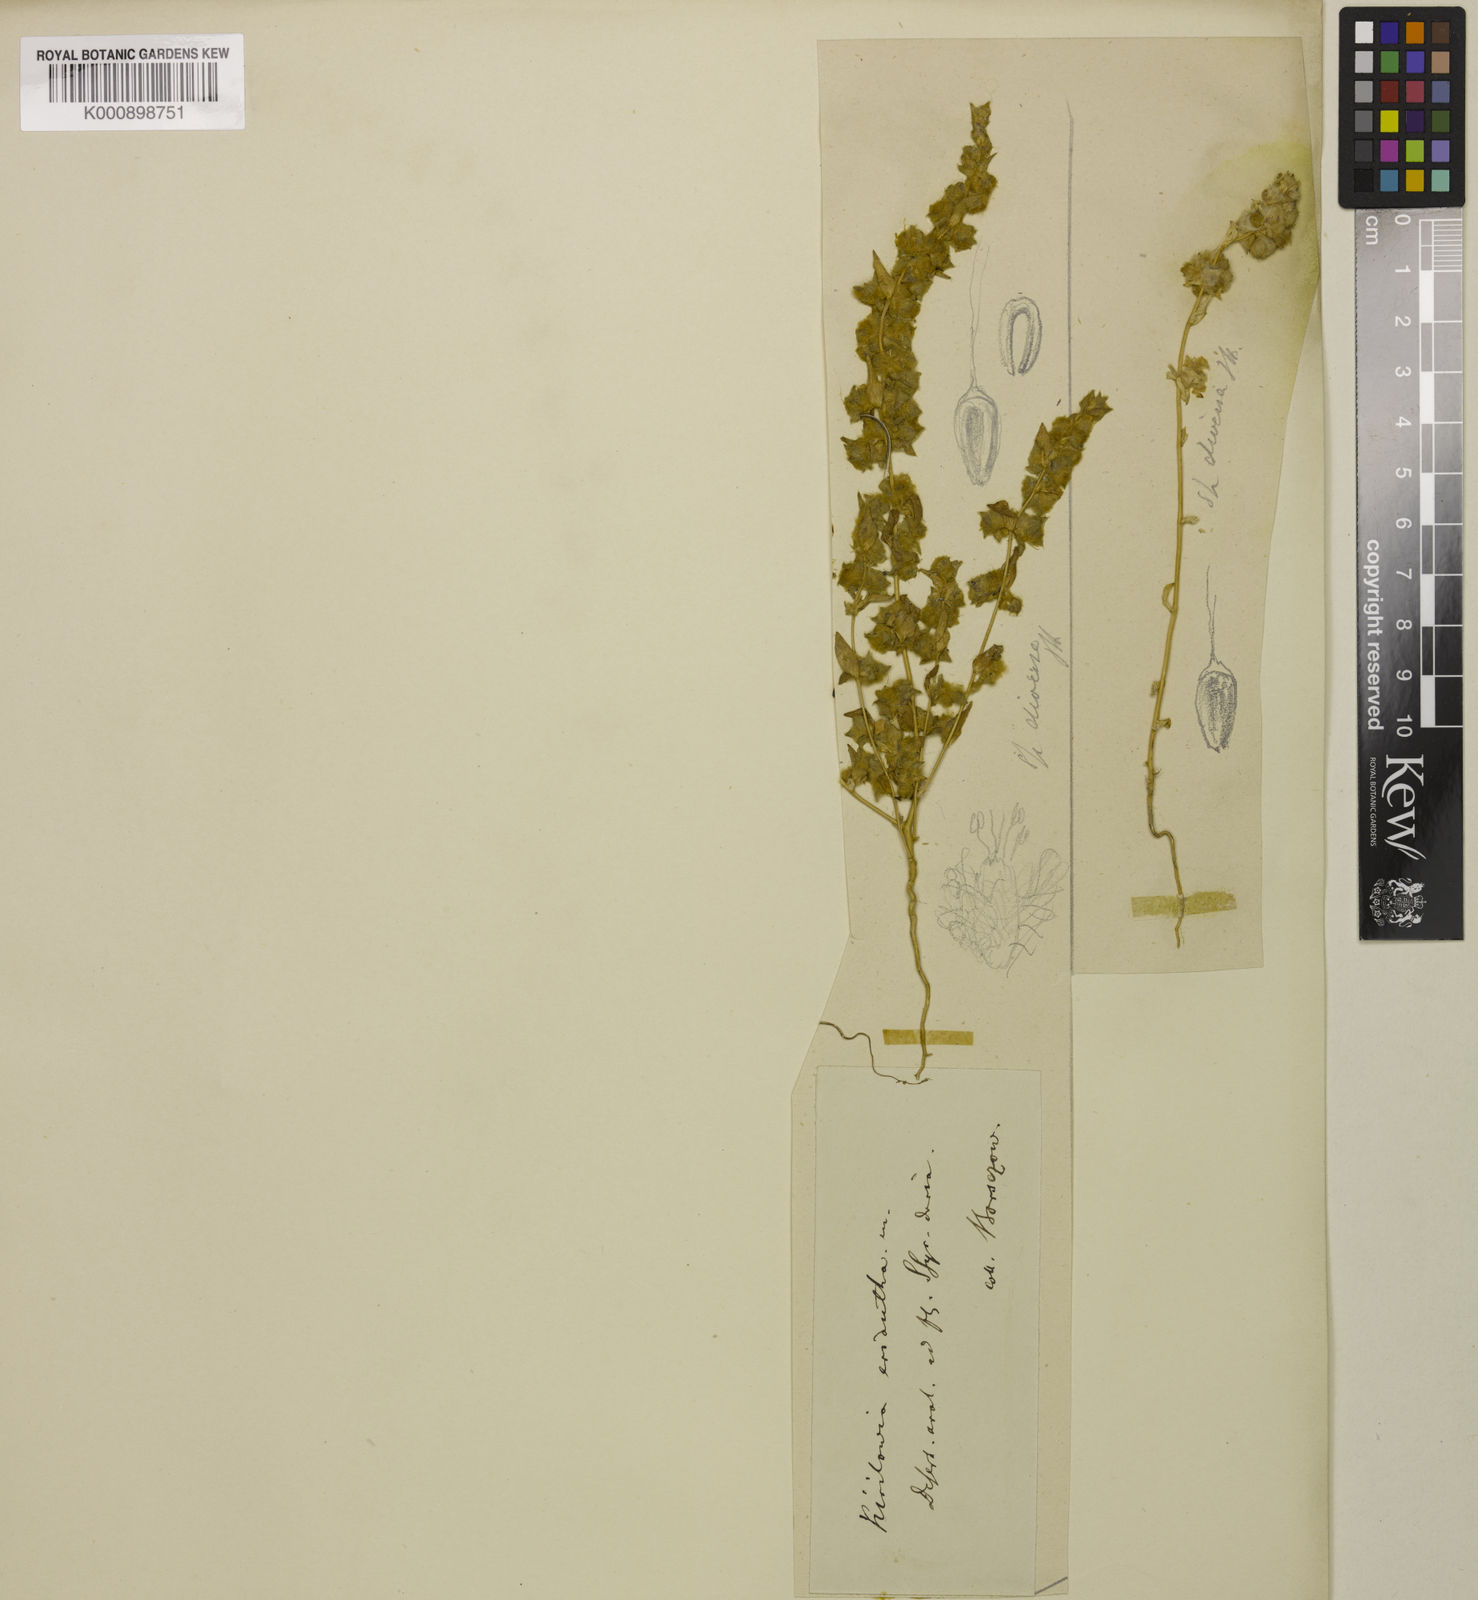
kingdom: Plantae
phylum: Tracheophyta
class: Magnoliopsida
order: Caryophyllales
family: Amaranthaceae
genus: Bassia
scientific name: Bassia lasiantha
